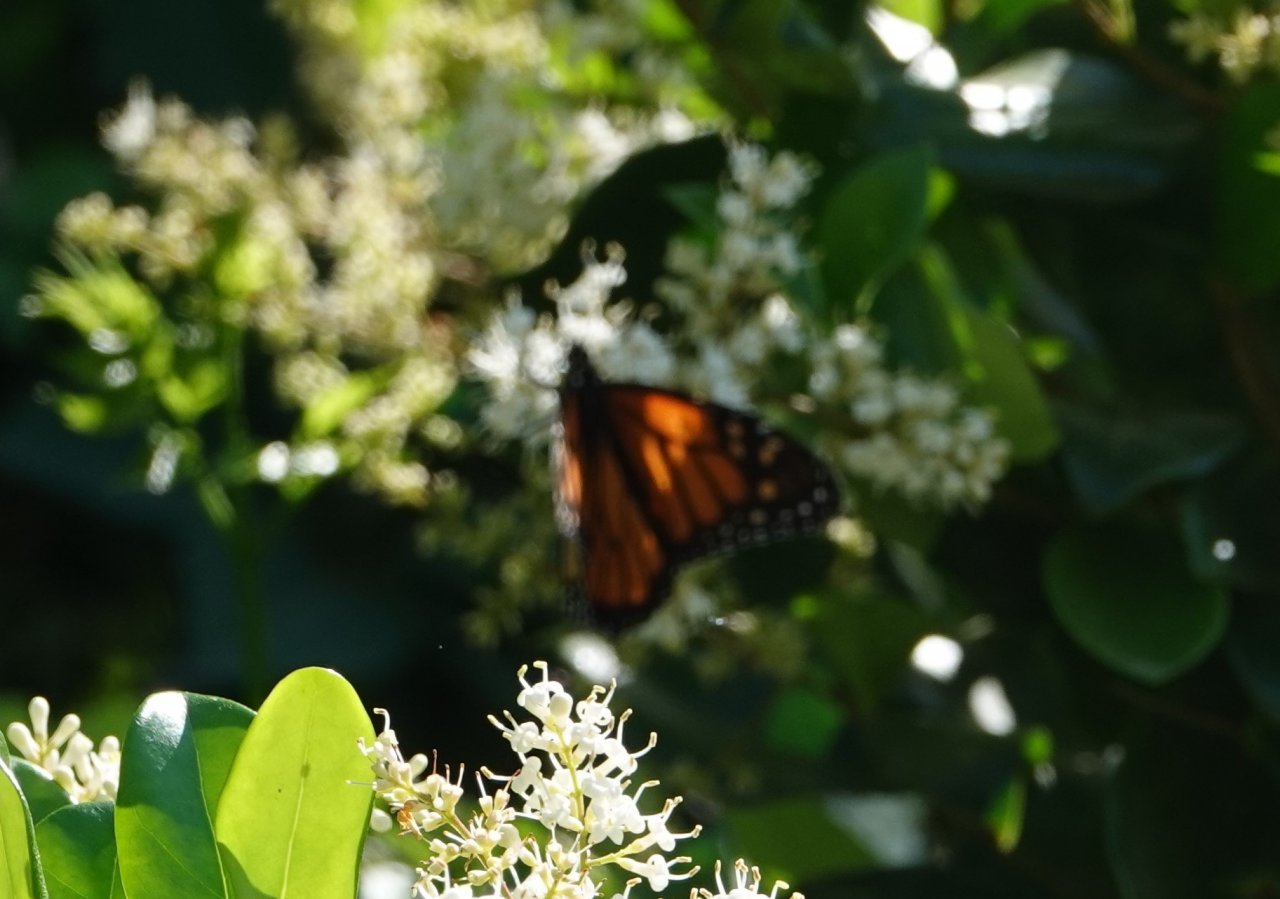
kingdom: Animalia
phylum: Arthropoda
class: Insecta
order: Lepidoptera
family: Nymphalidae
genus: Danaus
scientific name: Danaus plexippus
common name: Monarch
